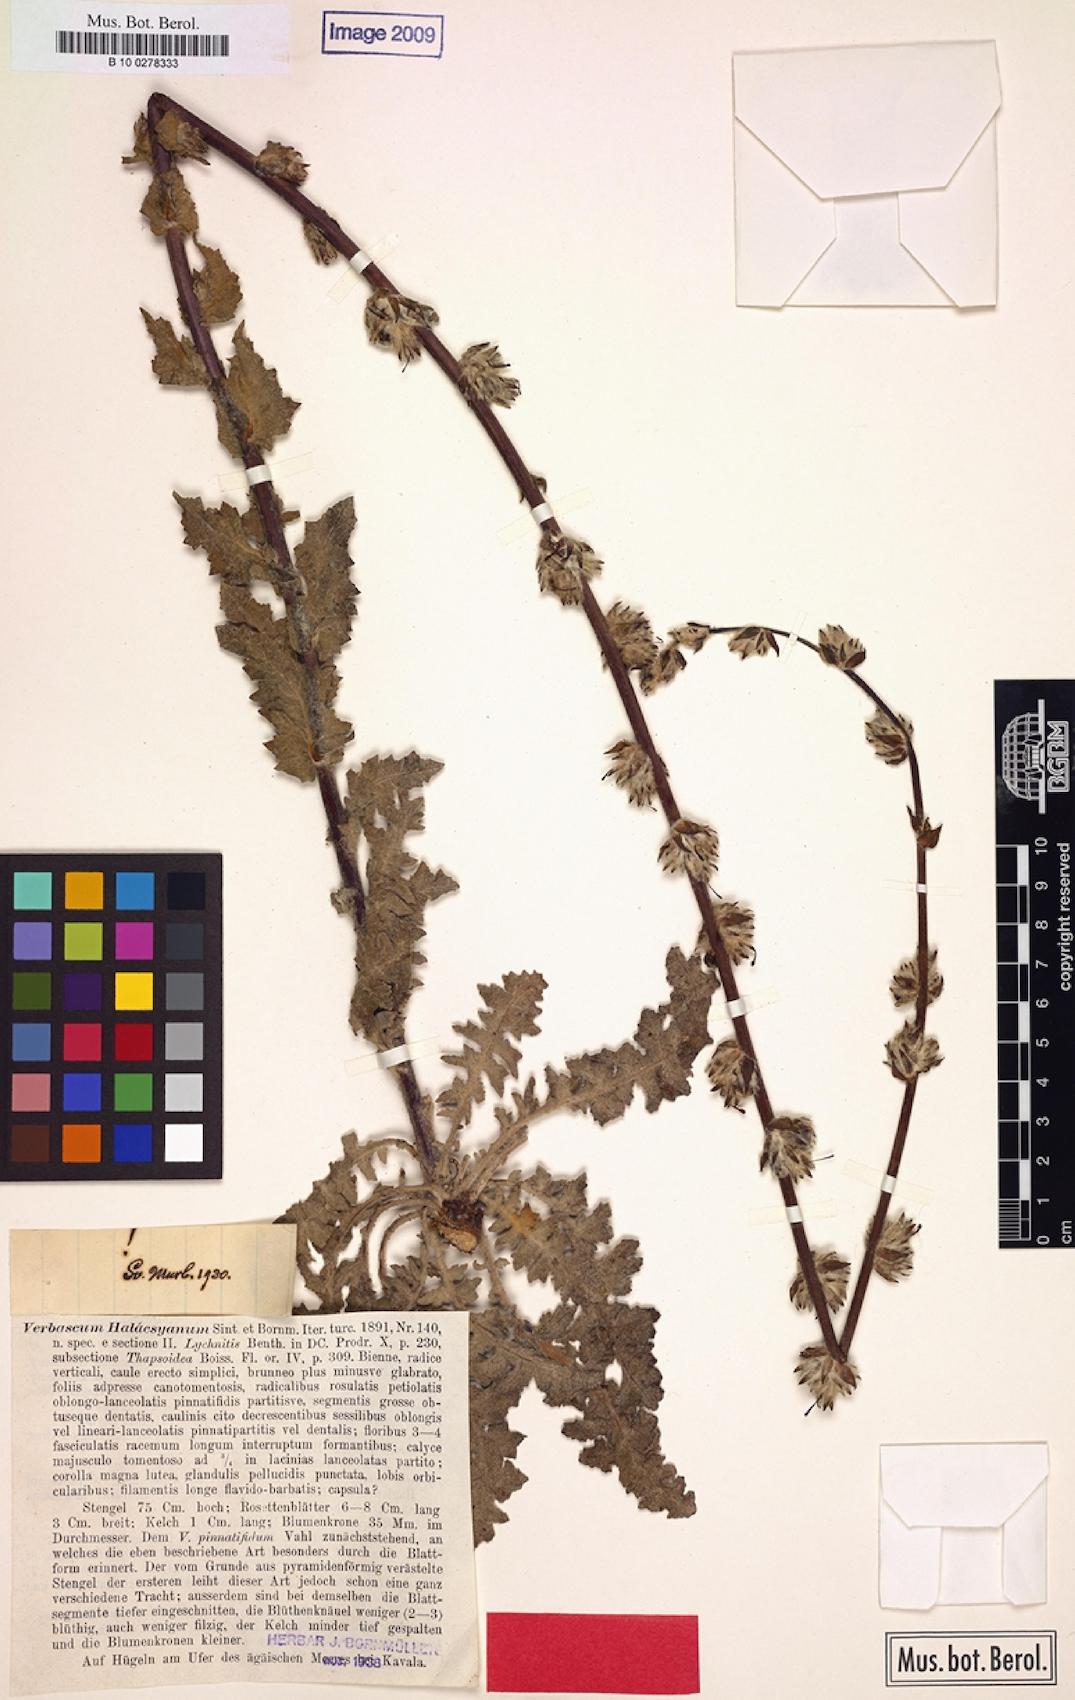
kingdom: Plantae
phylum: Tracheophyta
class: Magnoliopsida
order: Lamiales
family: Scrophulariaceae
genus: Verbascum
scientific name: Verbascum halacsyanum
